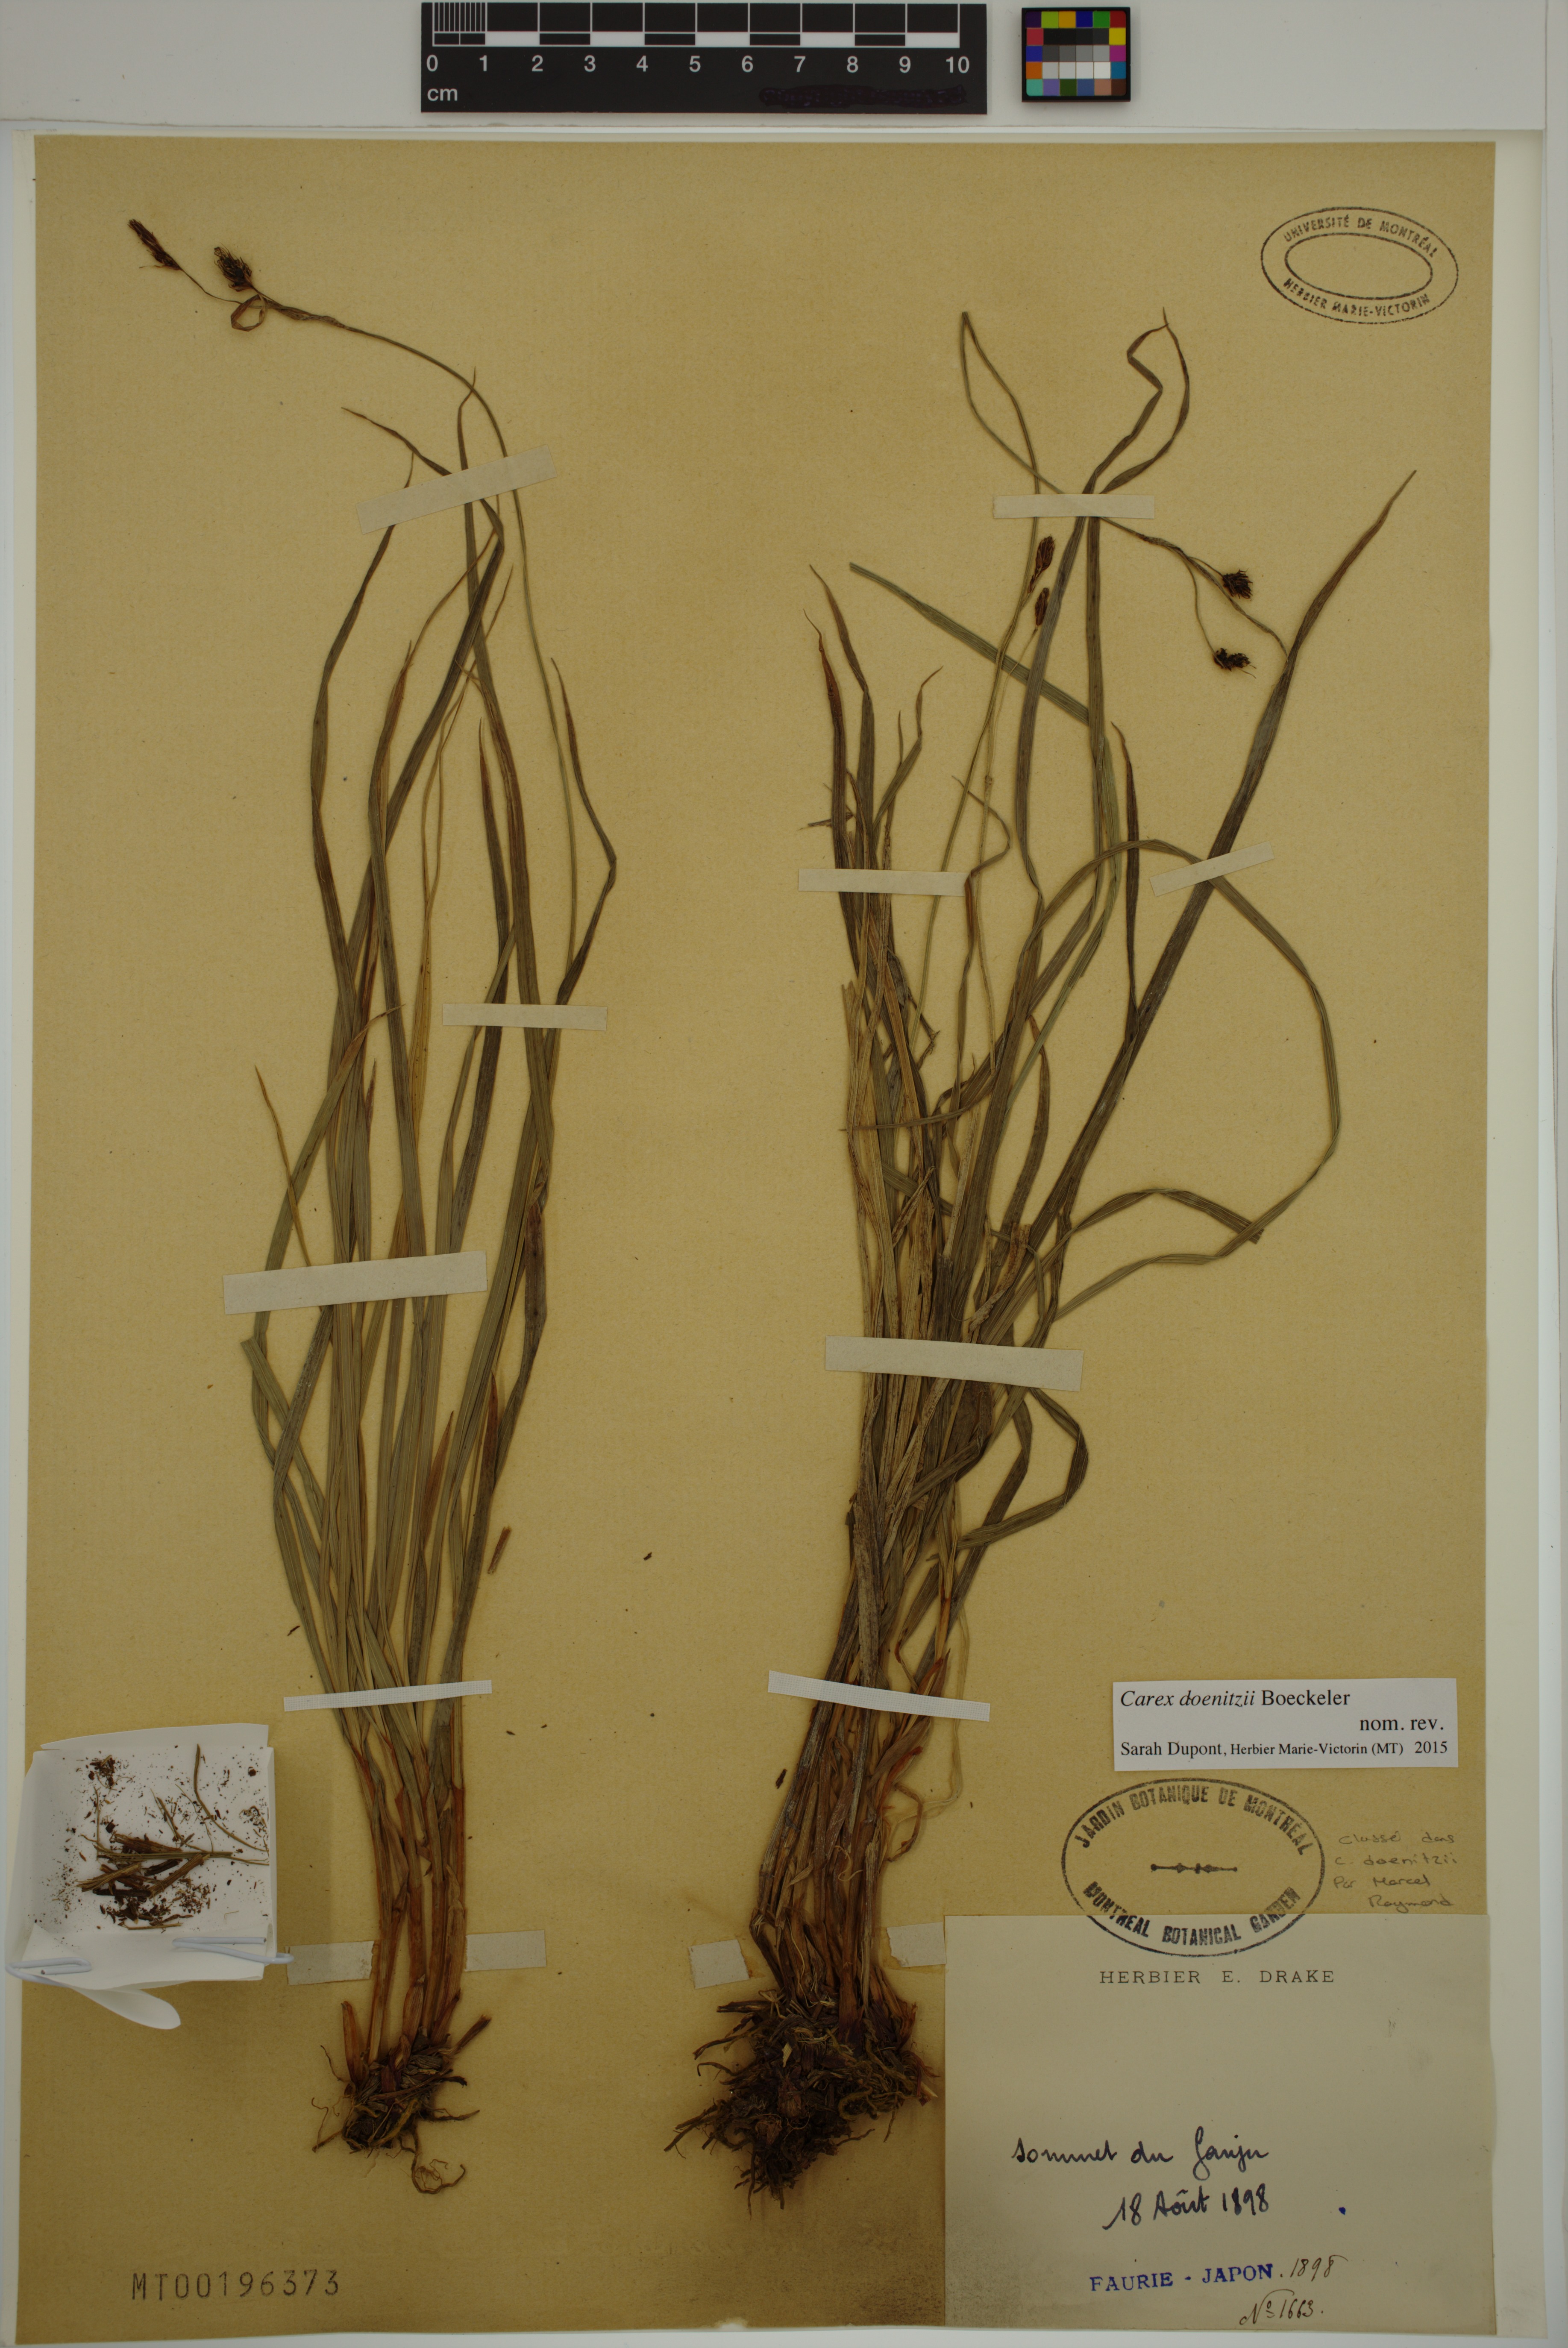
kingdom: Plantae
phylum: Tracheophyta
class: Liliopsida
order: Poales
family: Cyperaceae
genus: Carex
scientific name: Carex doenitzii
